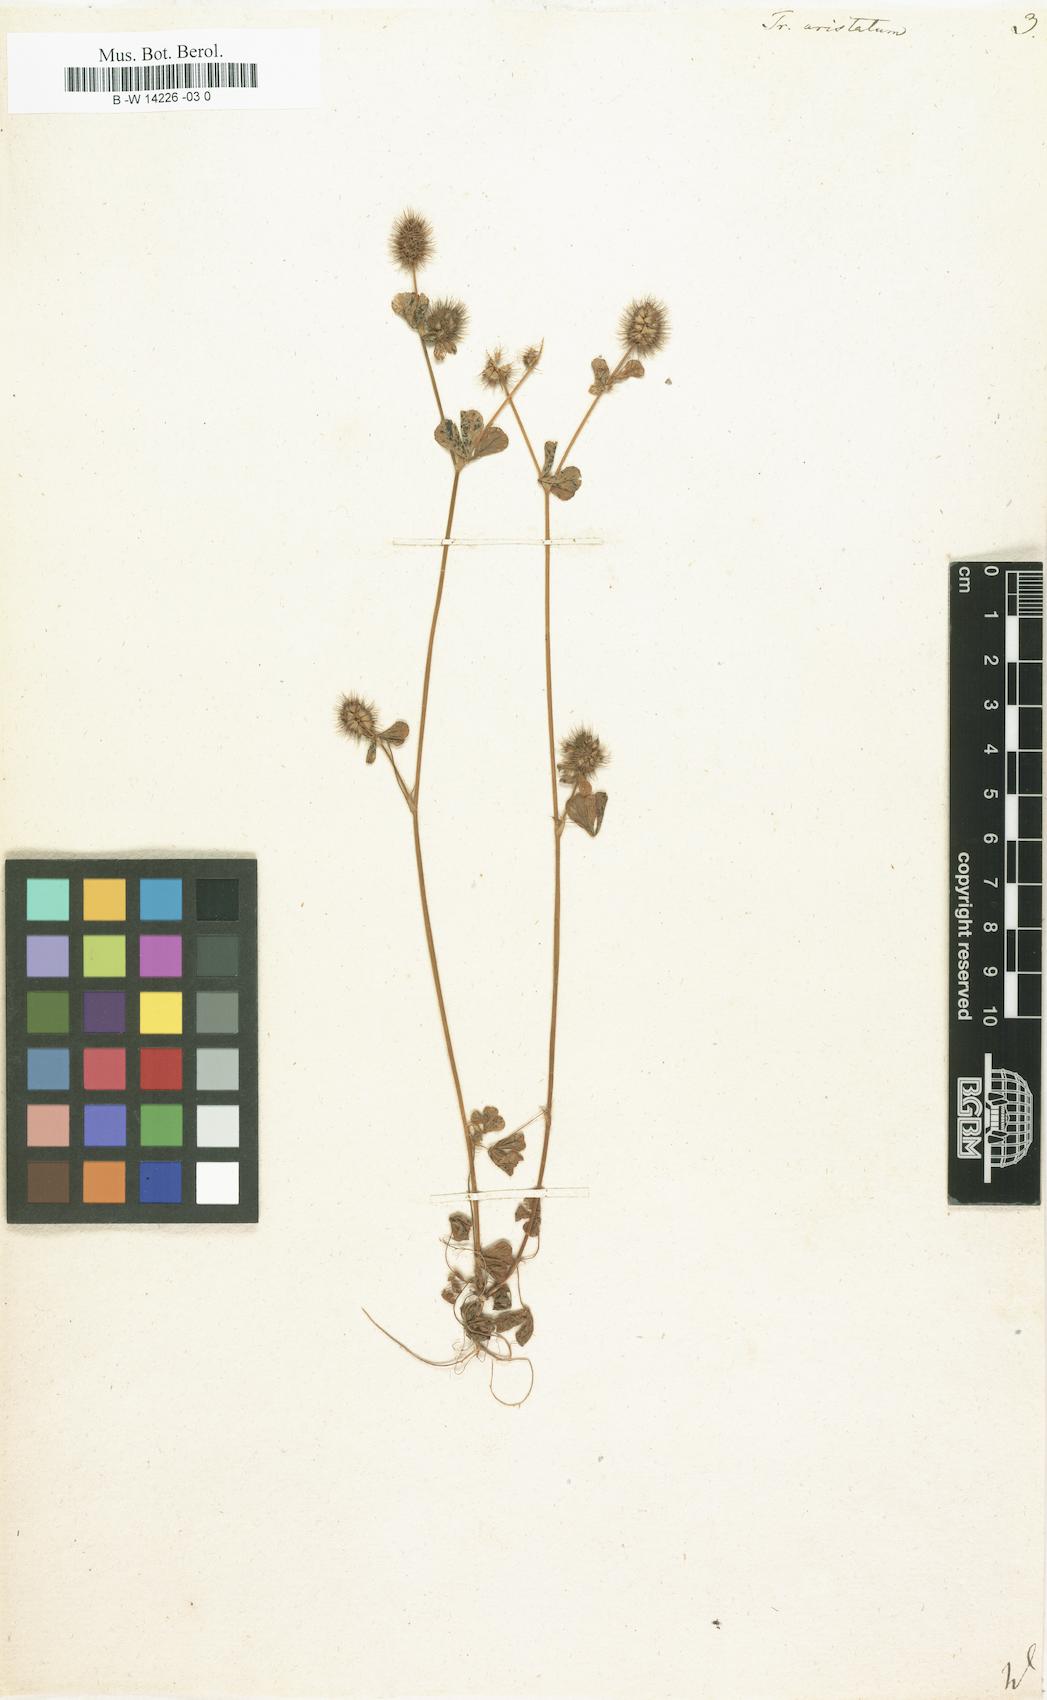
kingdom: Plantae
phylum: Tracheophyta
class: Magnoliopsida
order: Fabales
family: Fabaceae
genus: Trifolium
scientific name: Trifolium
